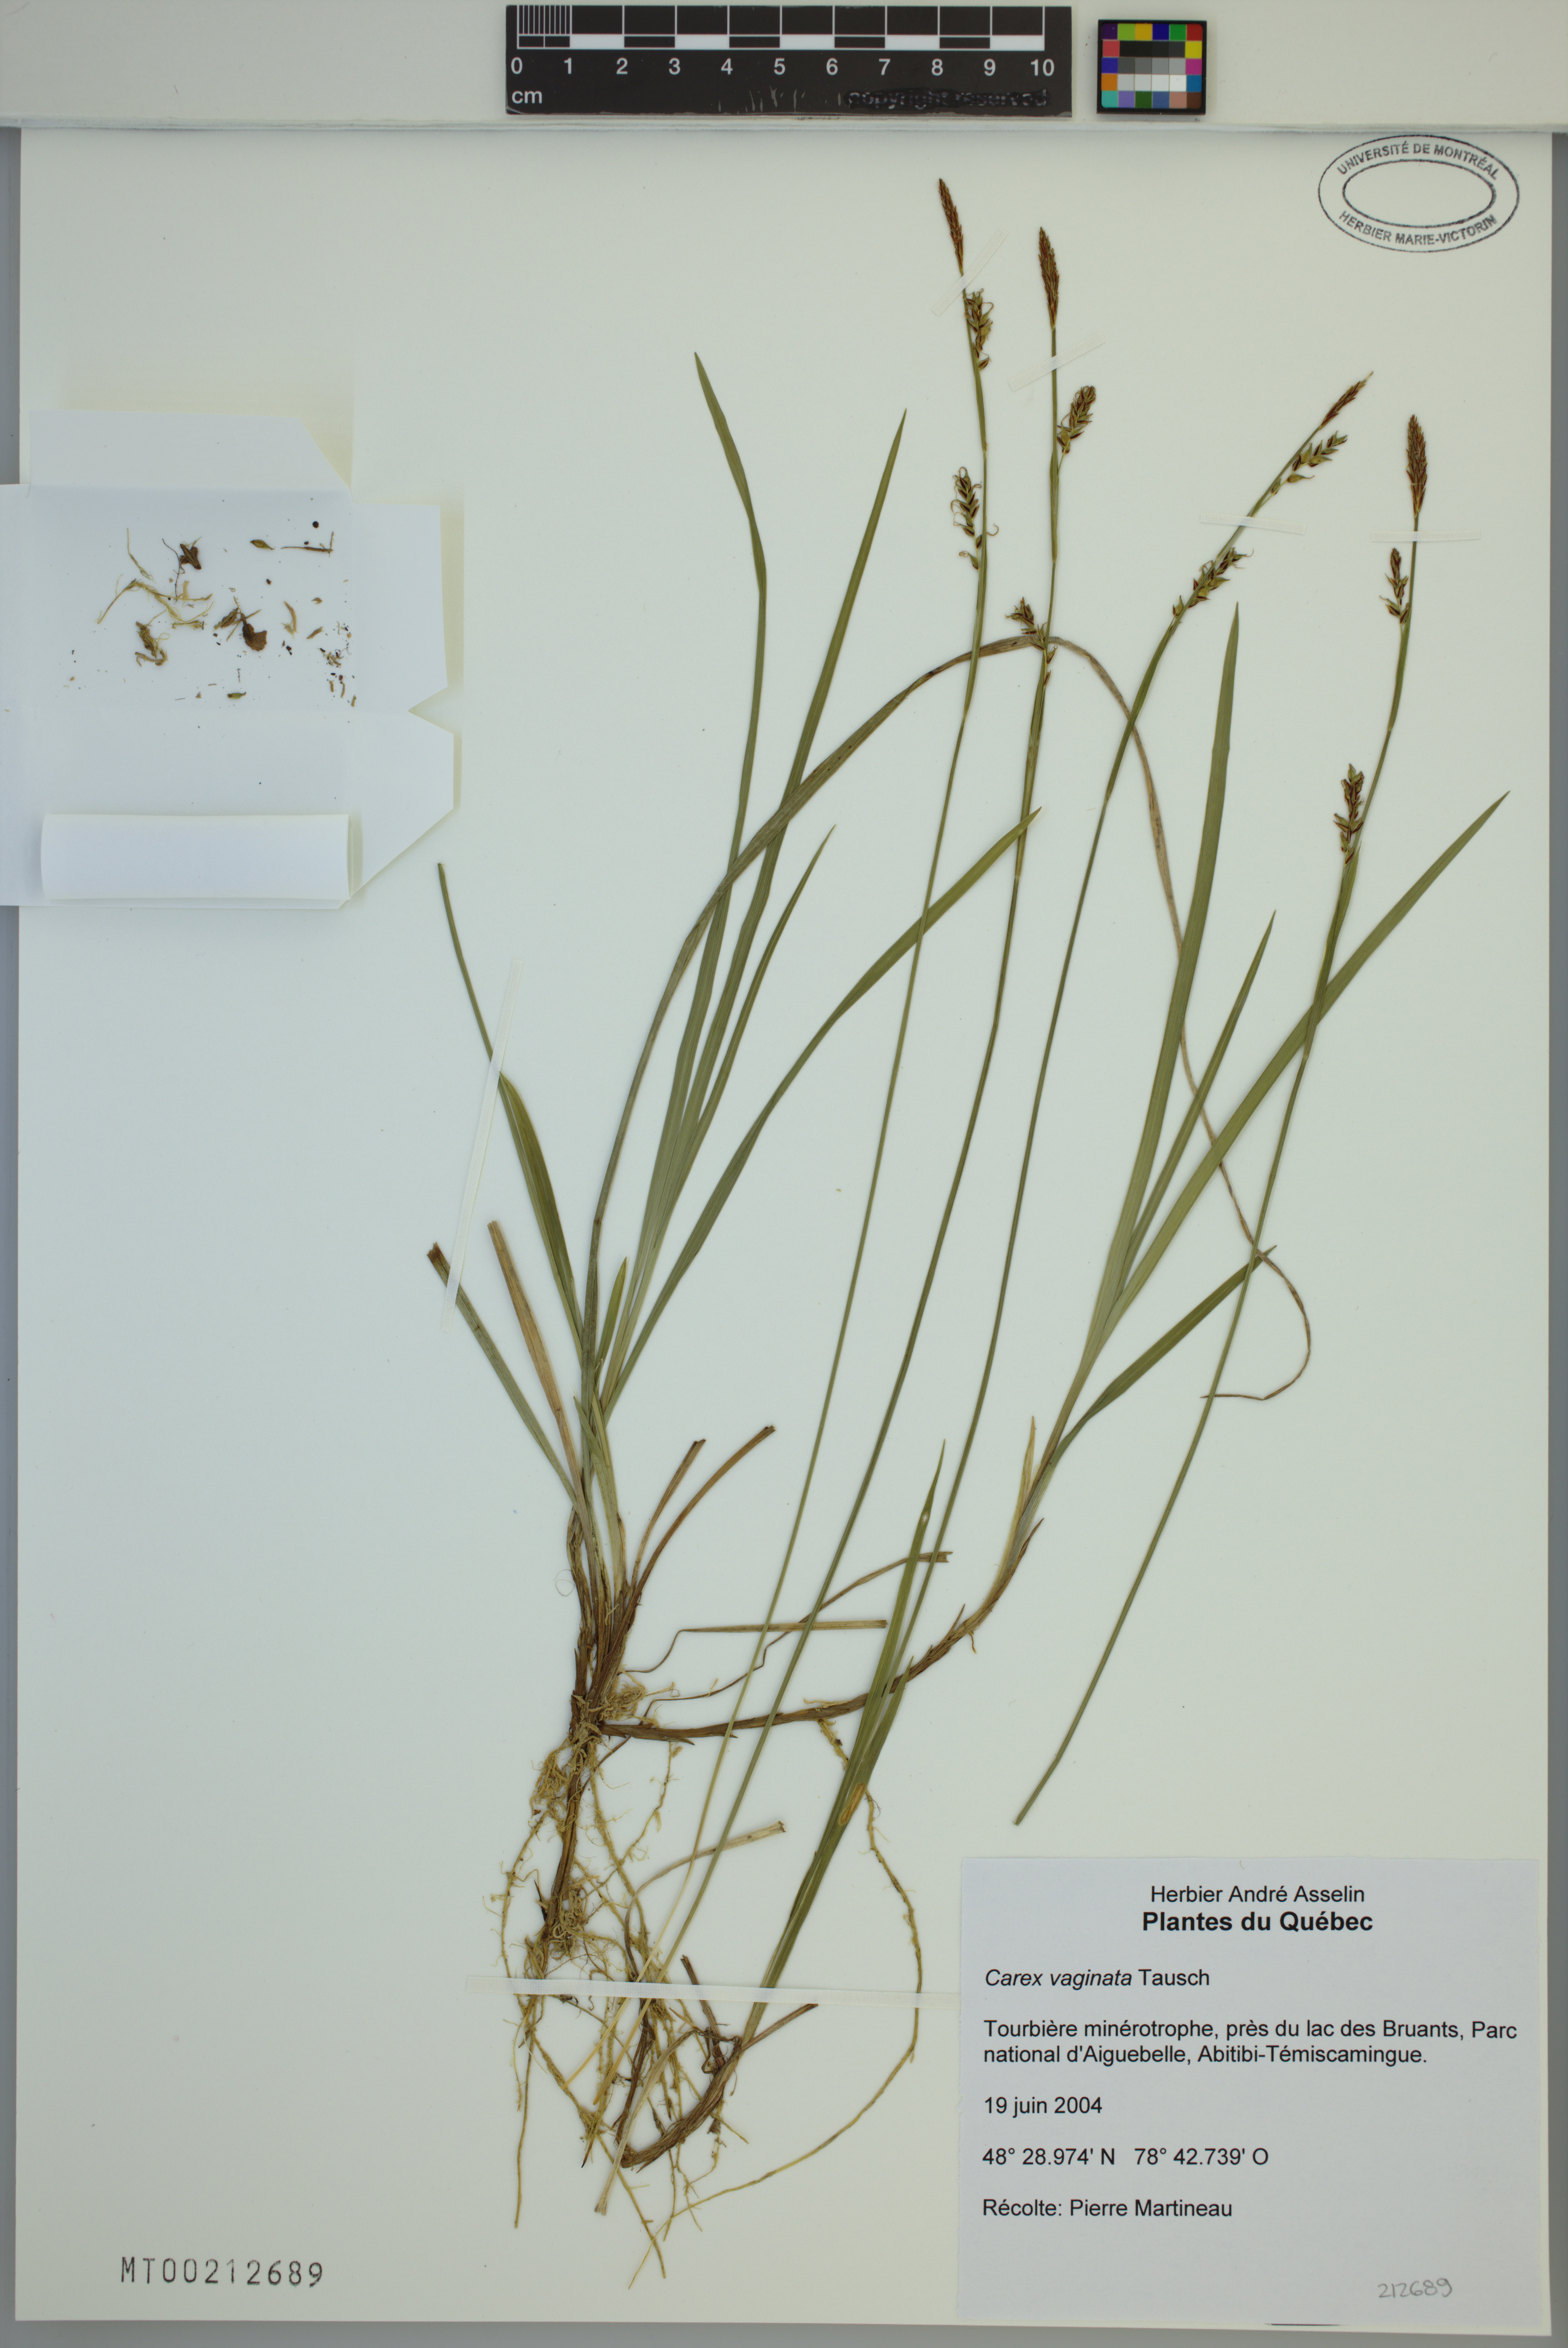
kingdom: Plantae
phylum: Tracheophyta
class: Liliopsida
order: Poales
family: Cyperaceae
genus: Carex
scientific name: Carex vaginata
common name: Sheathed sedge
